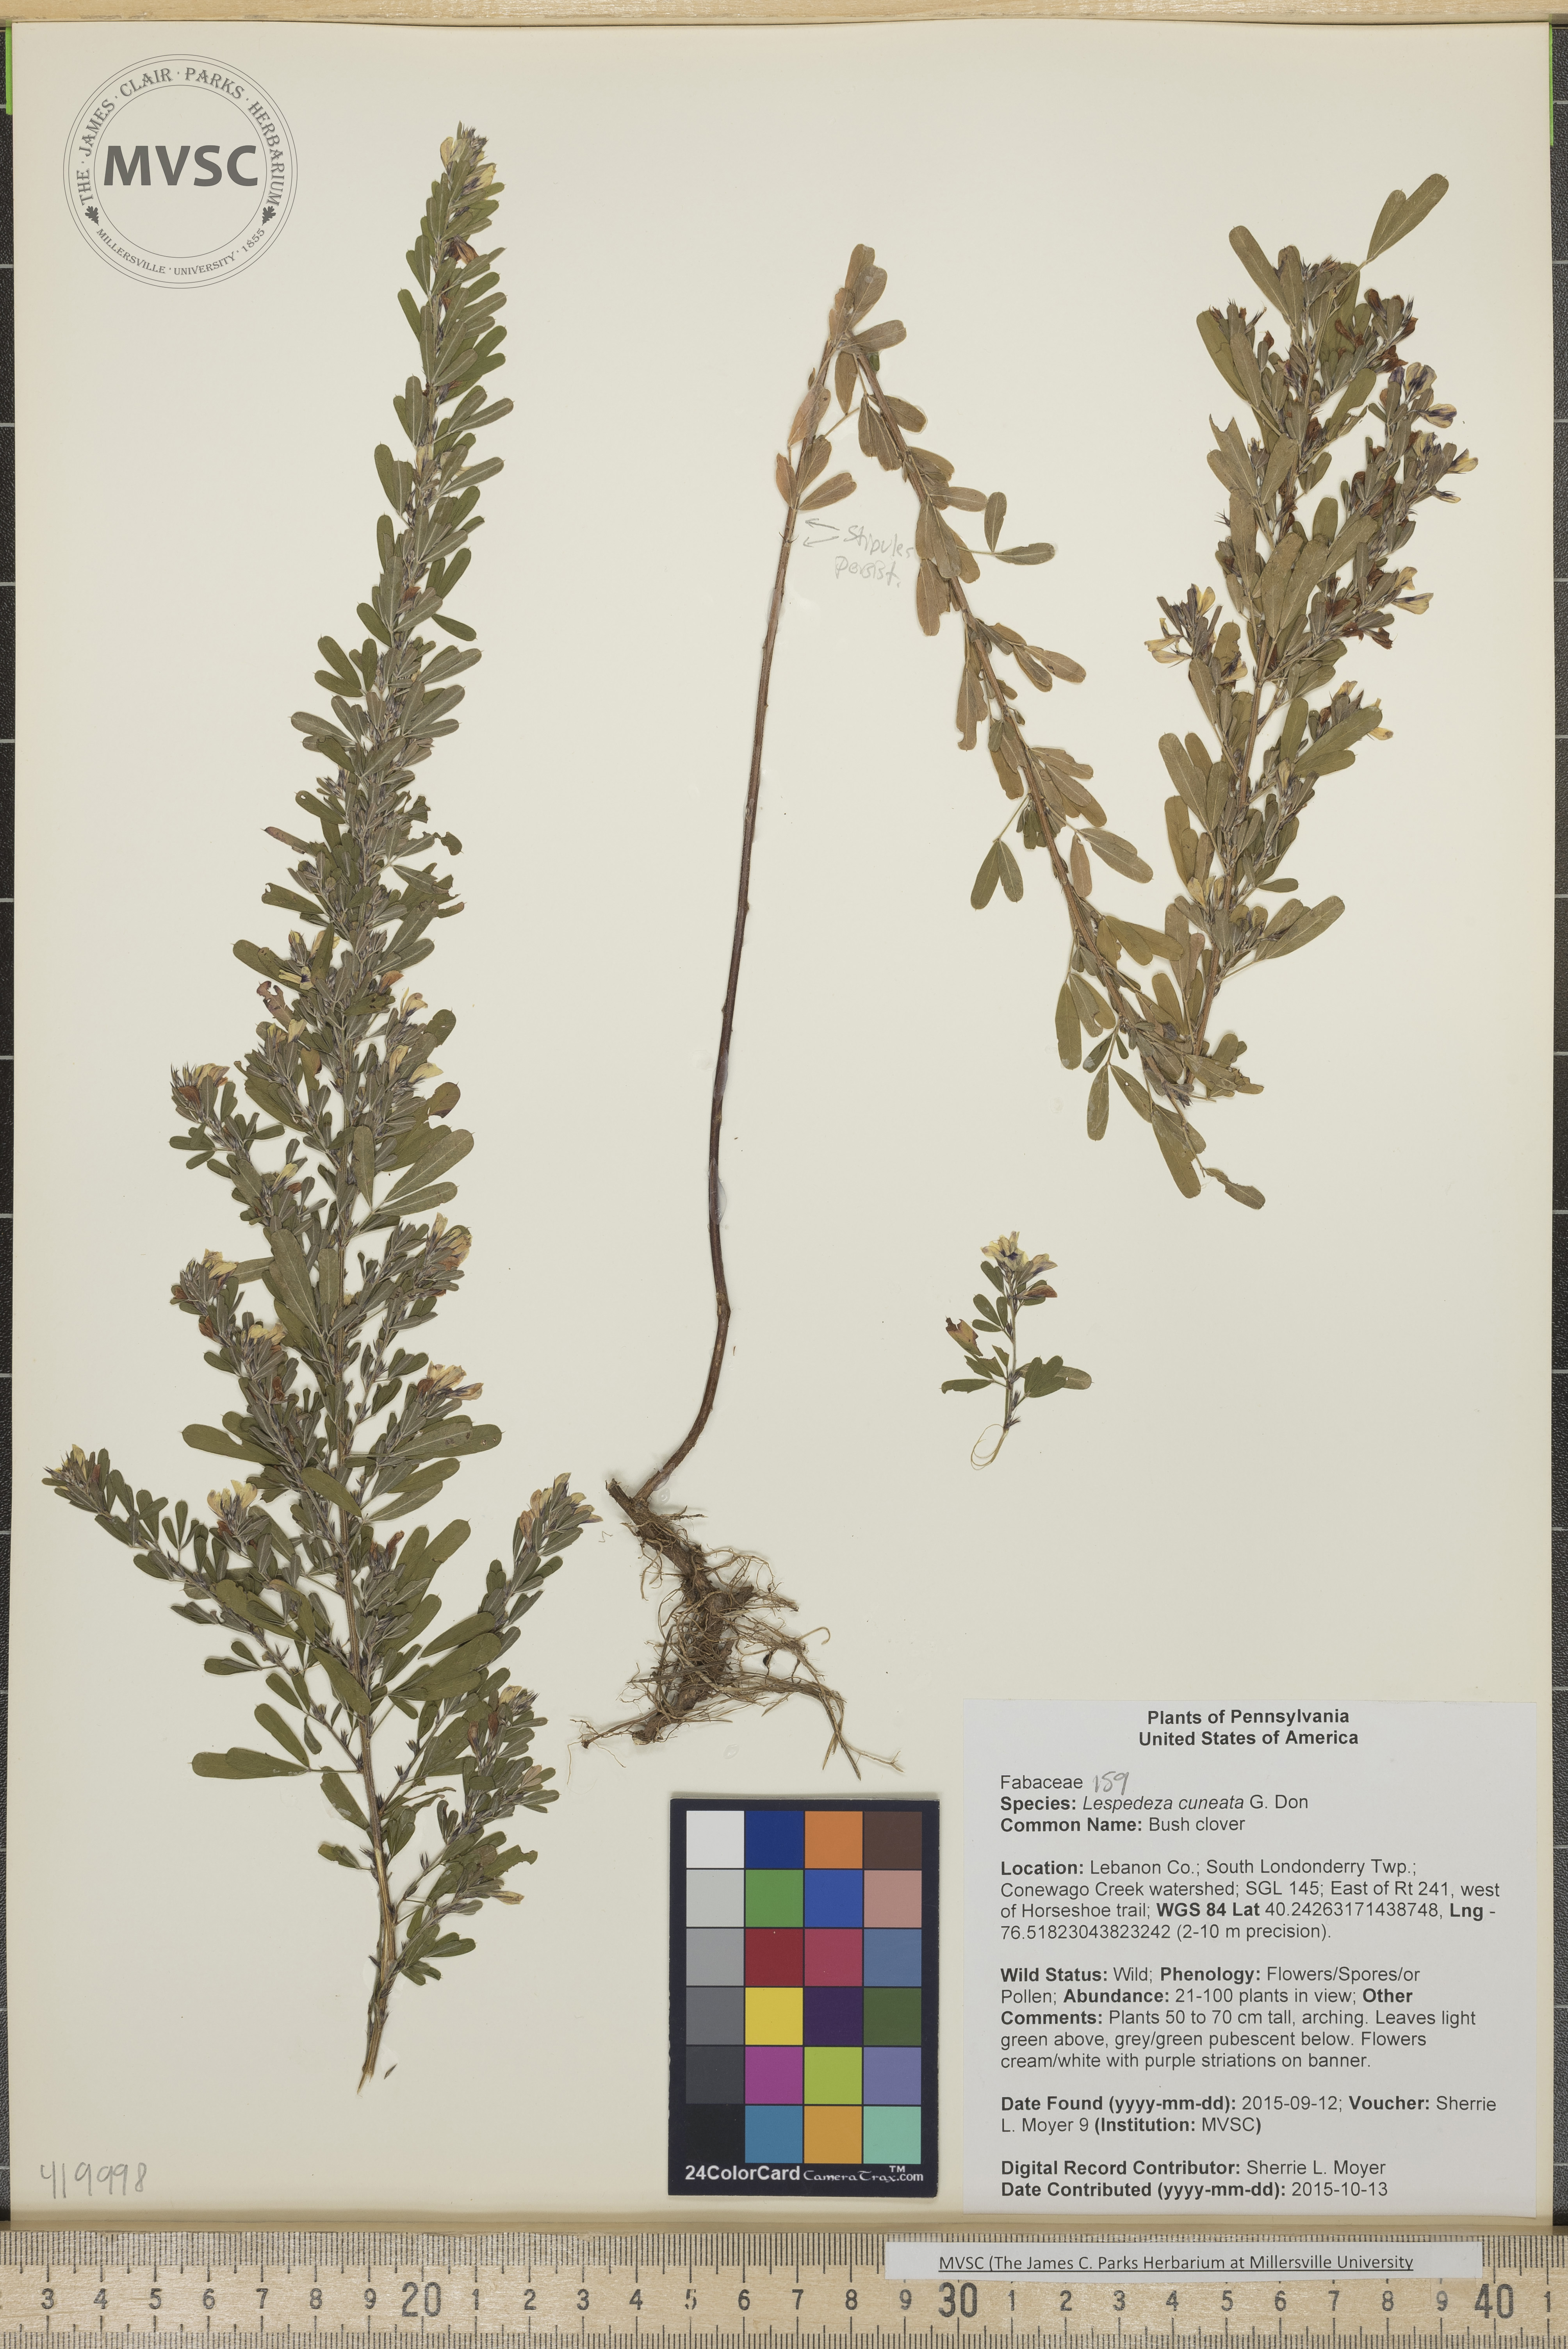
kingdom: Plantae
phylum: Tracheophyta
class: Magnoliopsida
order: Fabales
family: Fabaceae
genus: Lespedeza
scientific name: Lespedeza cuneata
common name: Bush clover
